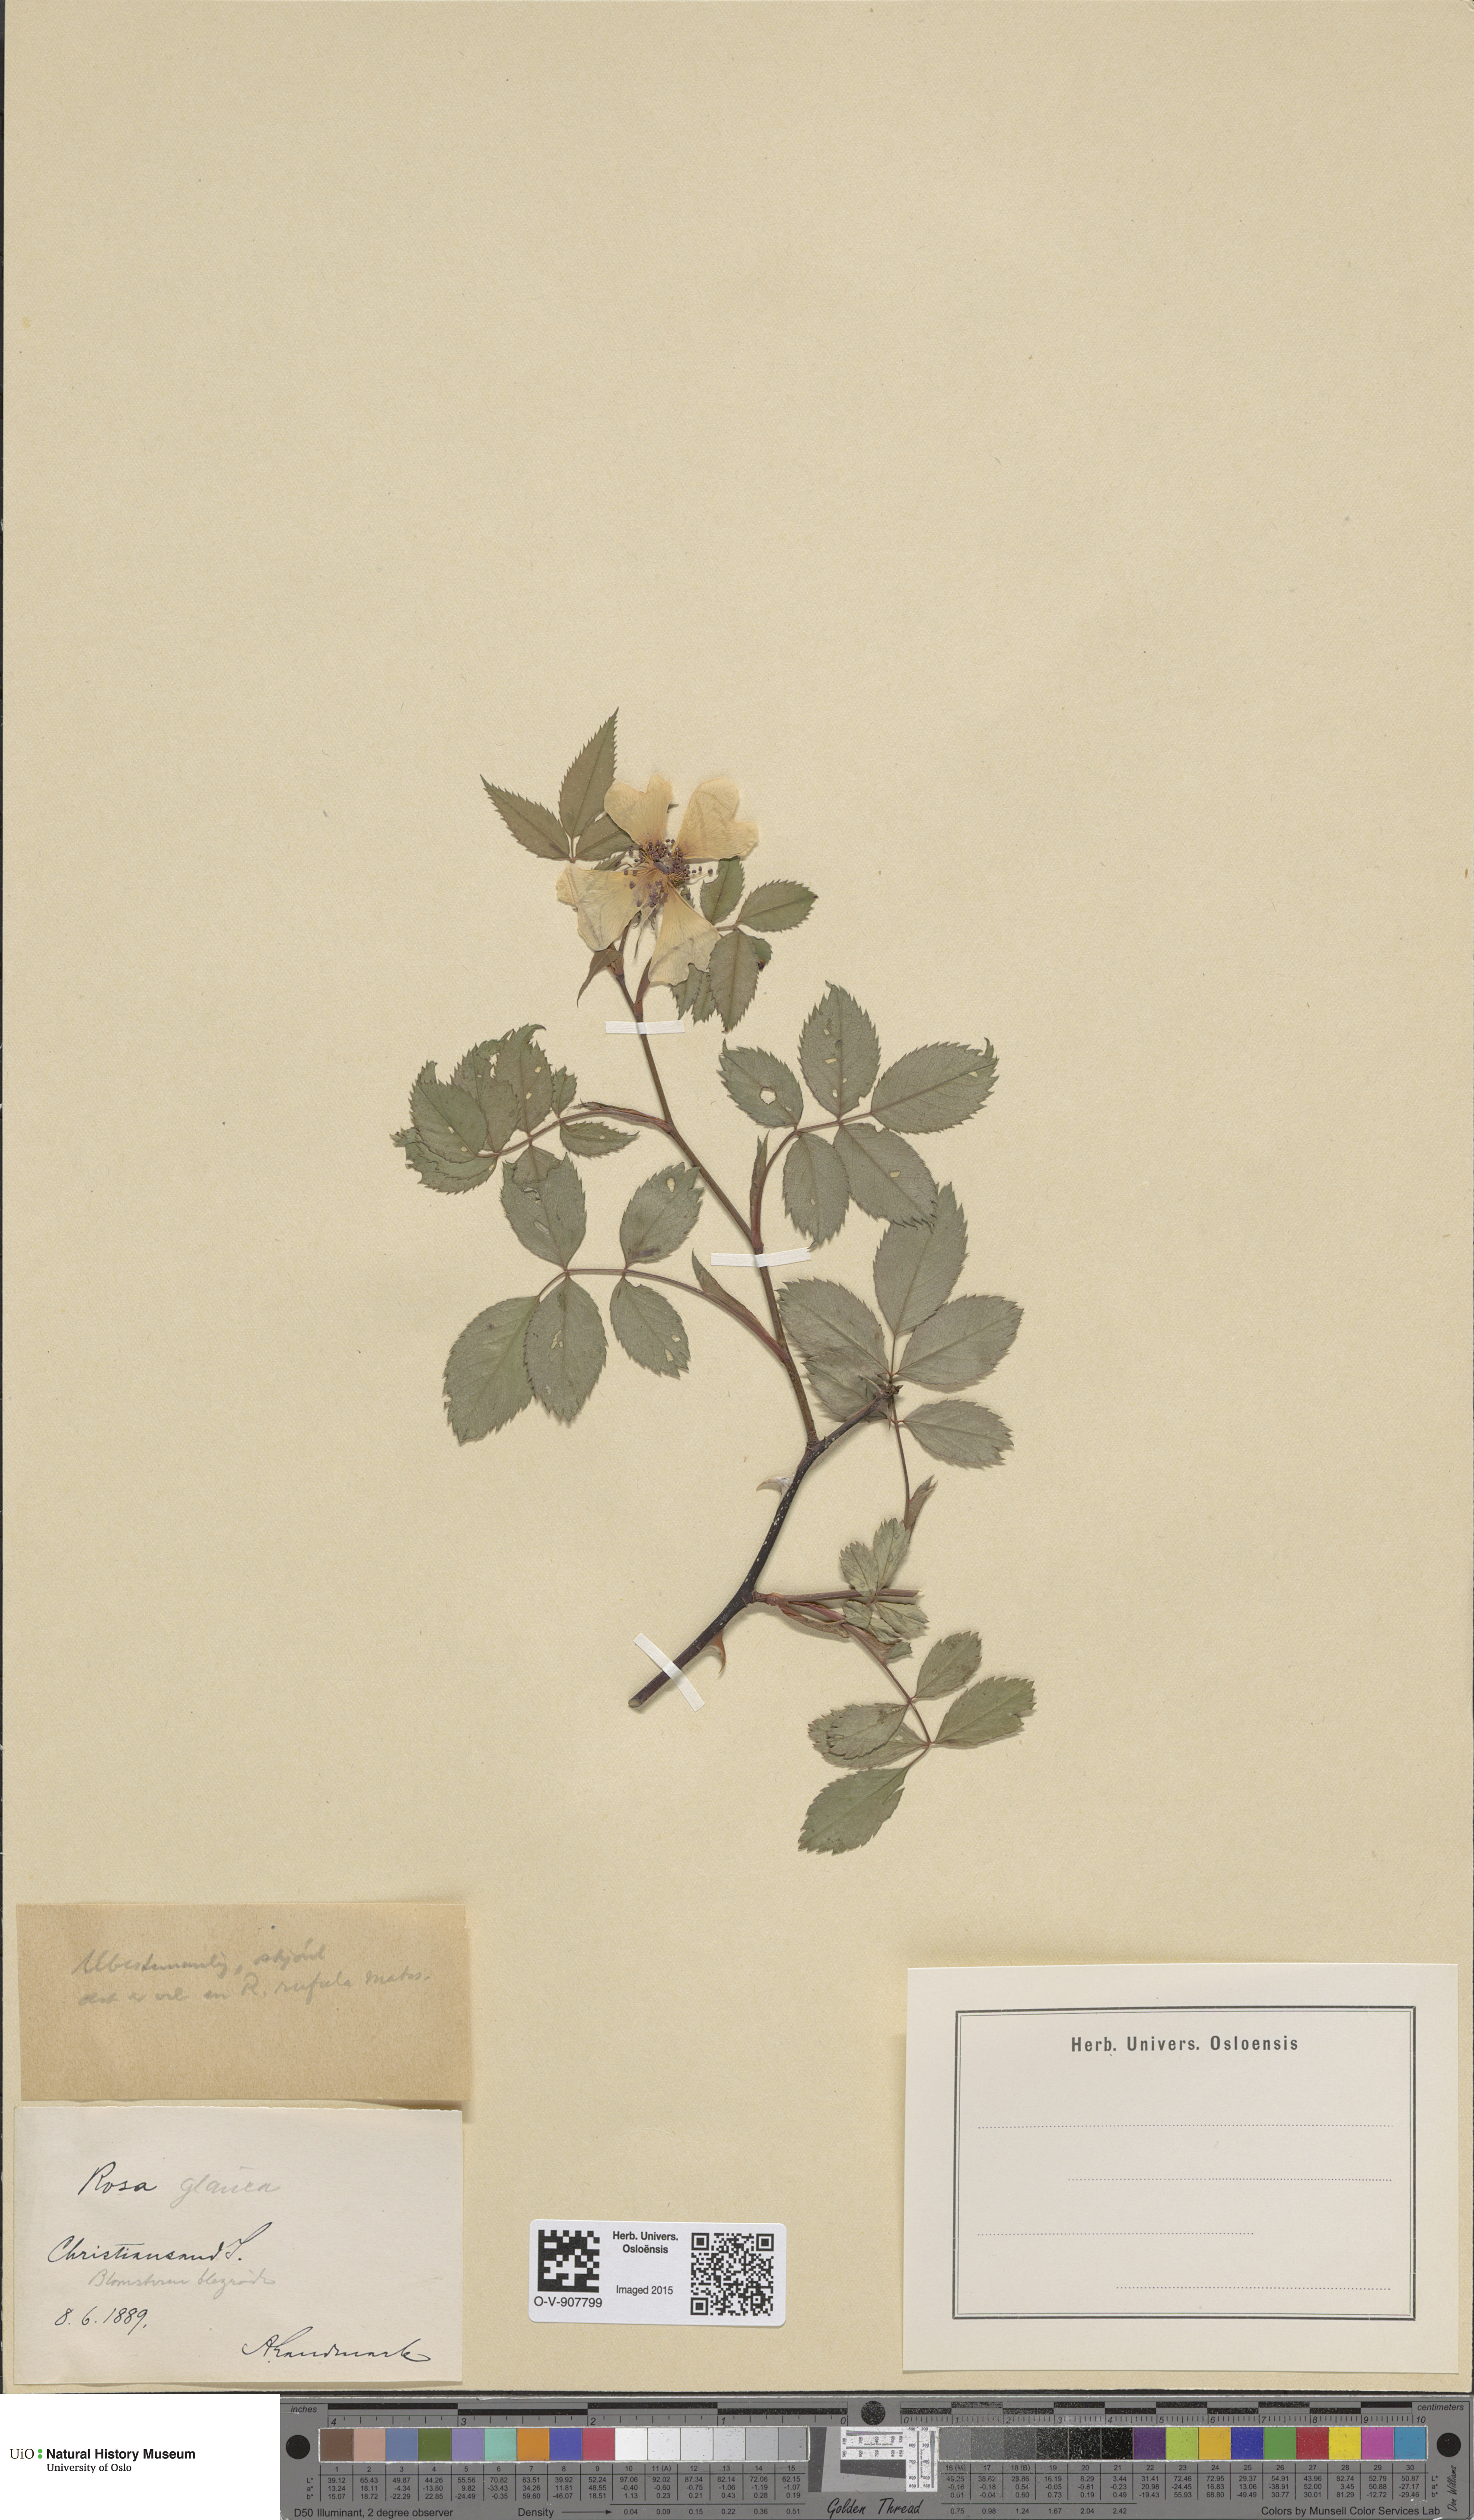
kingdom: Plantae
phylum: Tracheophyta
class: Magnoliopsida
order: Rosales
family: Rosaceae
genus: Rosa
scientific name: Rosa glauca
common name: Redleaf rose
